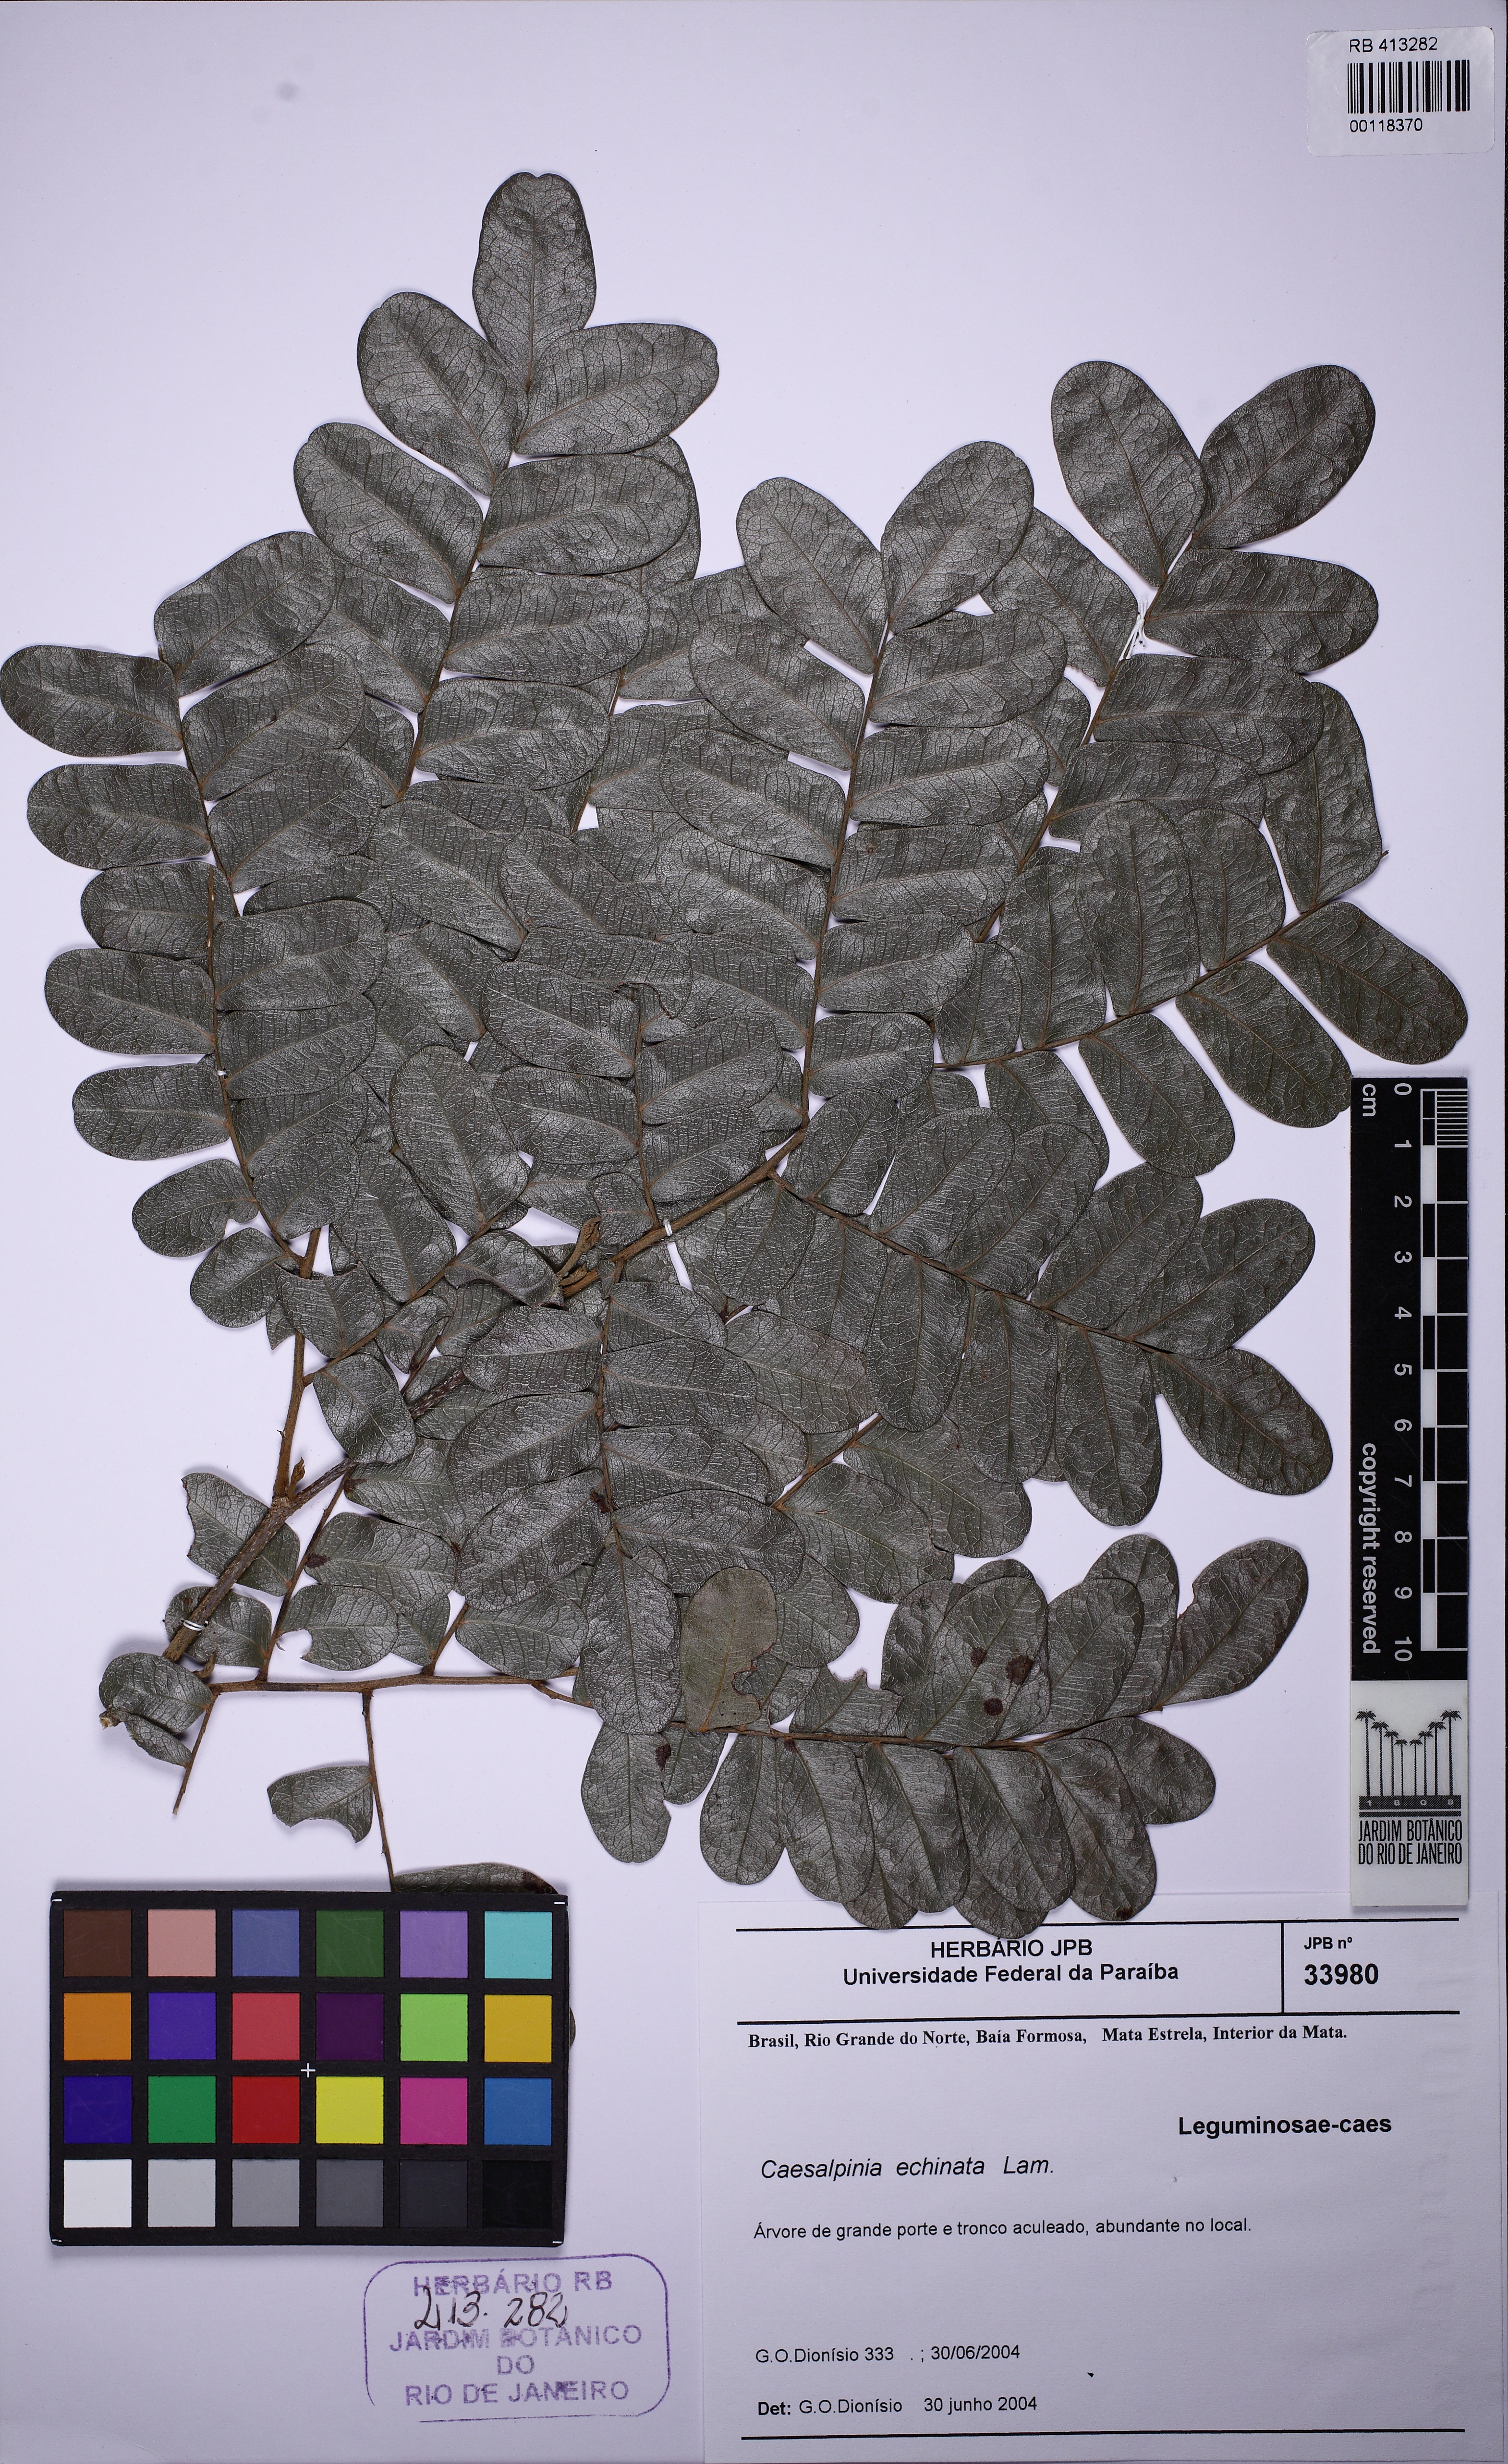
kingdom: Plantae
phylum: Tracheophyta
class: Magnoliopsida
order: Fabales
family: Fabaceae
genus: Paubrasilia
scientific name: Paubrasilia echinata
